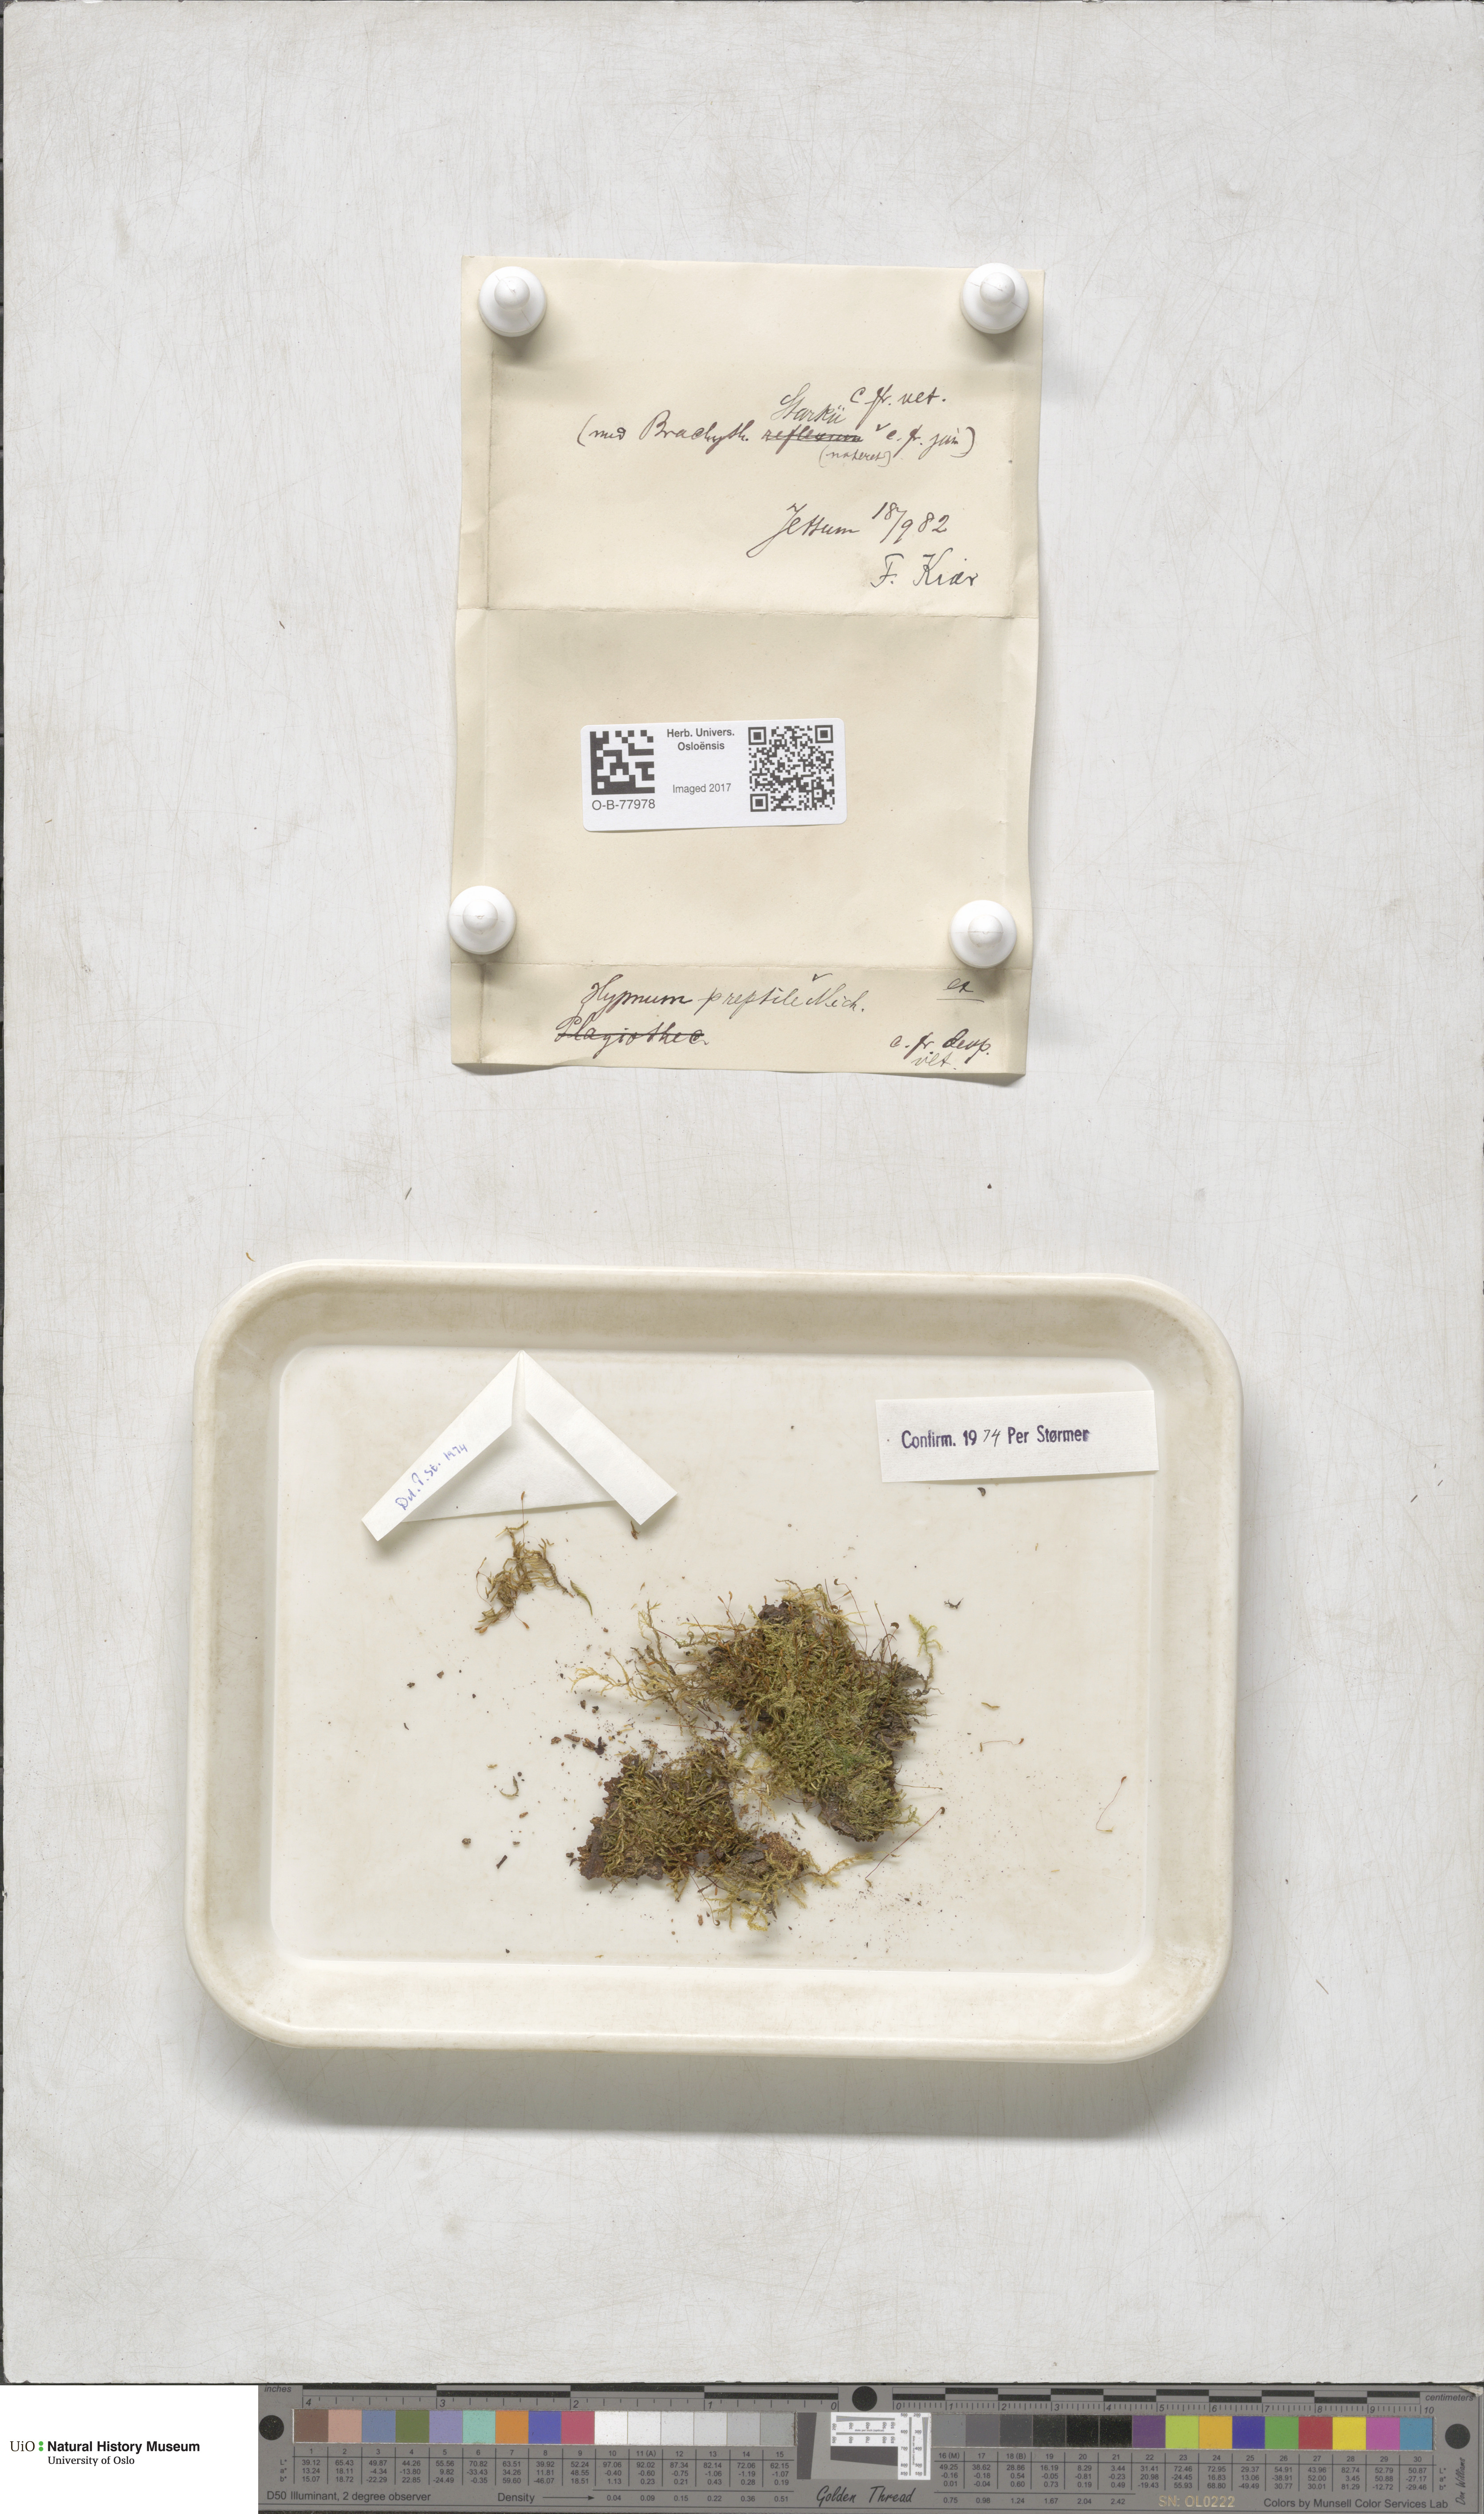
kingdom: Plantae
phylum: Bryophyta
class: Bryopsida
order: Hypnales
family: Jocheniaceae
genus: Jochenia
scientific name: Jochenia pallescens
